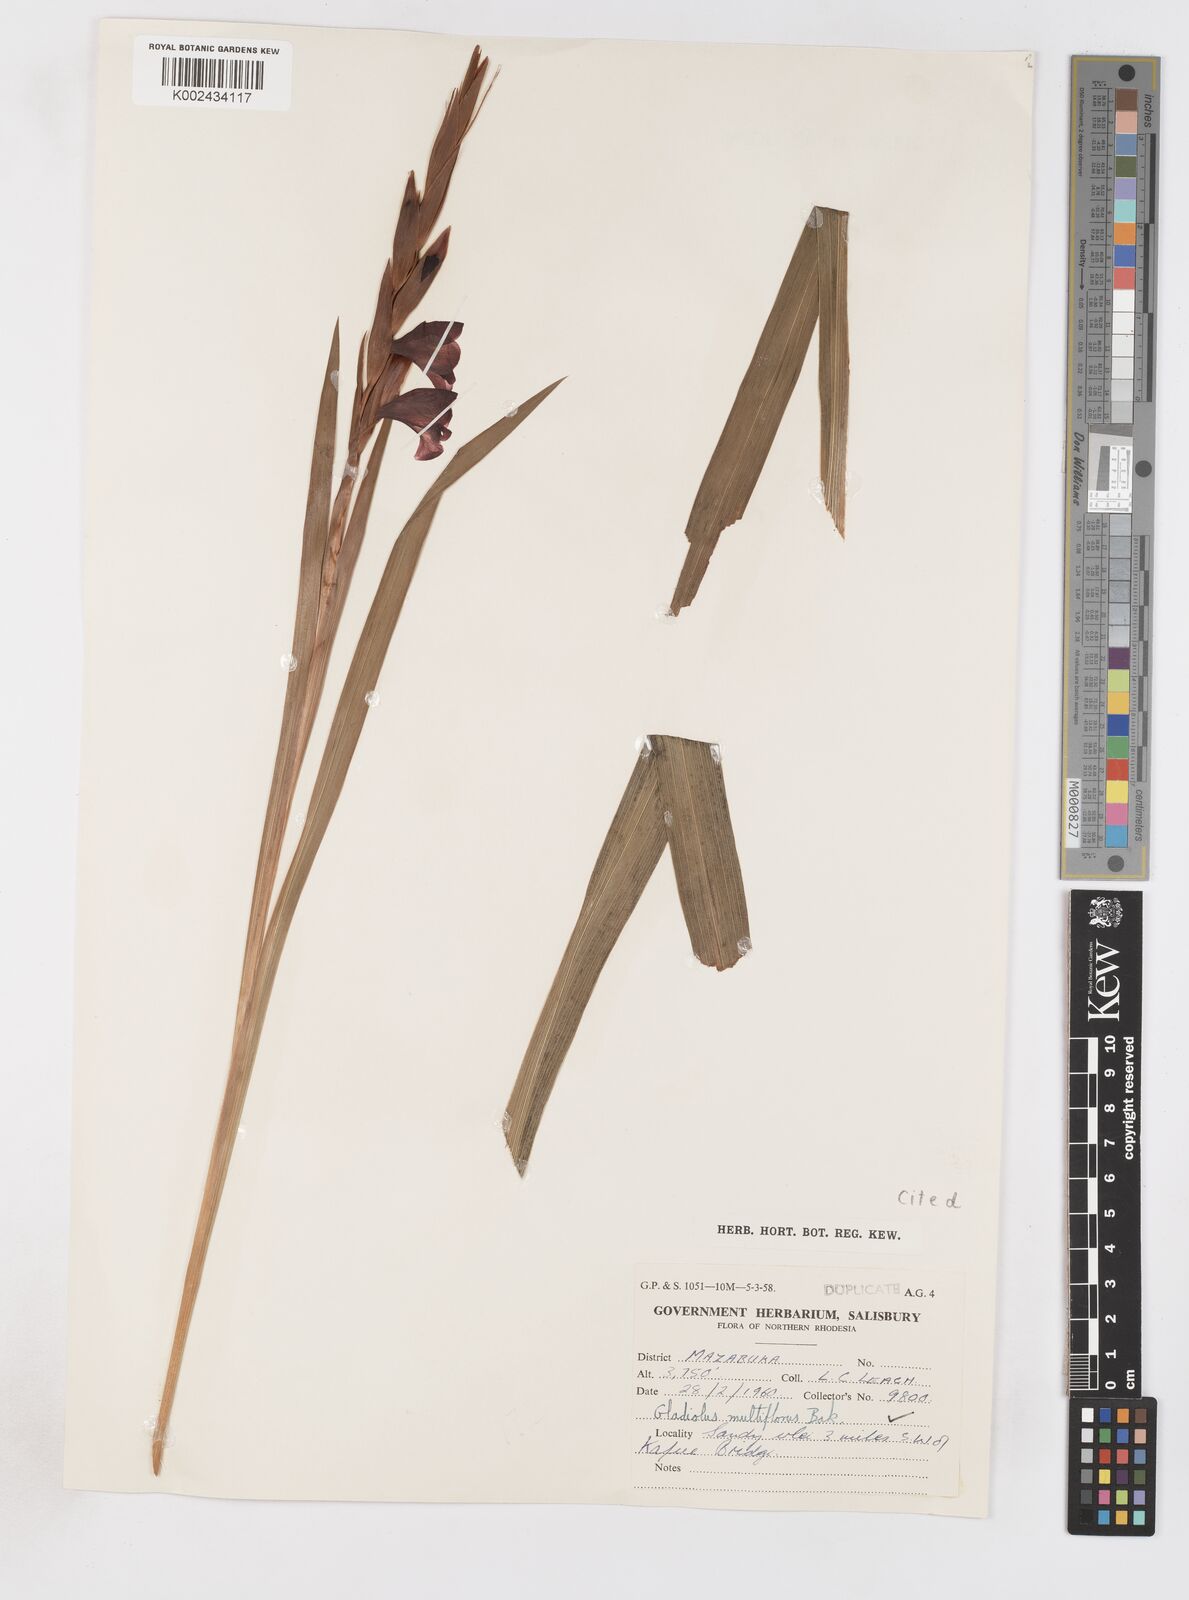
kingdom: Plantae
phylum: Tracheophyta
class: Liliopsida
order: Asparagales
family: Iridaceae
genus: Gladiolus
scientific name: Gladiolus gregarius
